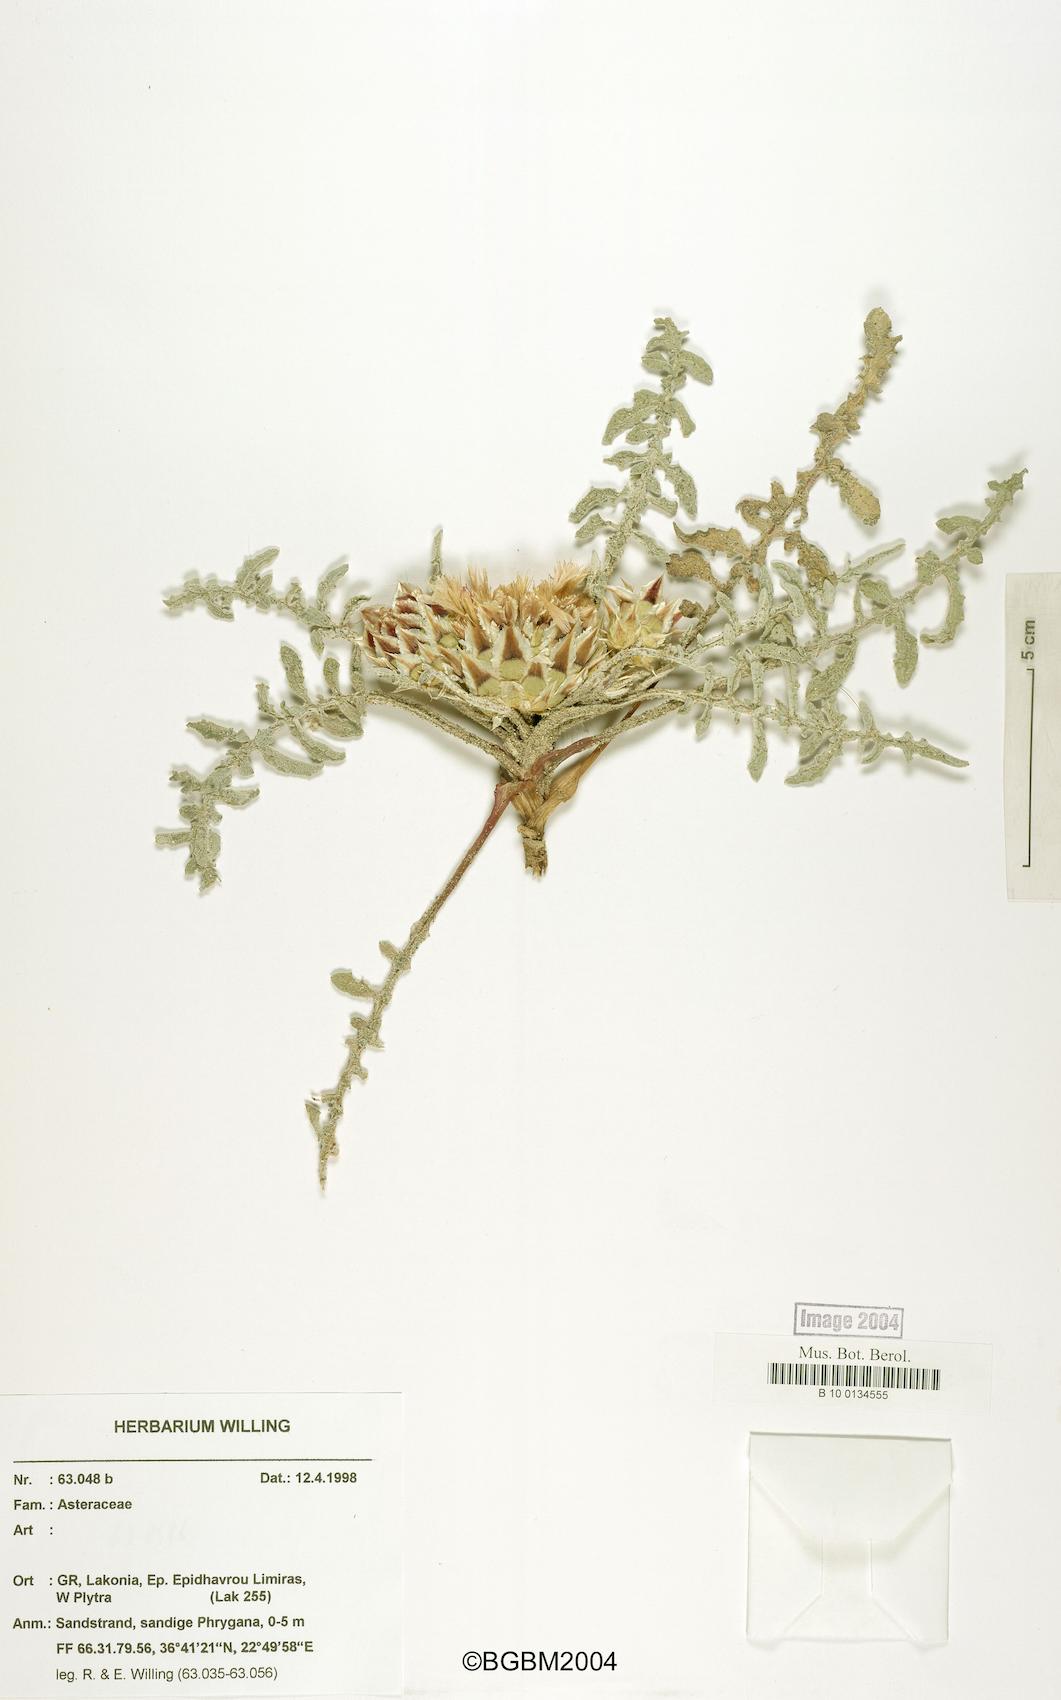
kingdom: Plantae
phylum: Tracheophyta
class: Magnoliopsida
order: Asterales
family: Asteraceae
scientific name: Asteraceae
